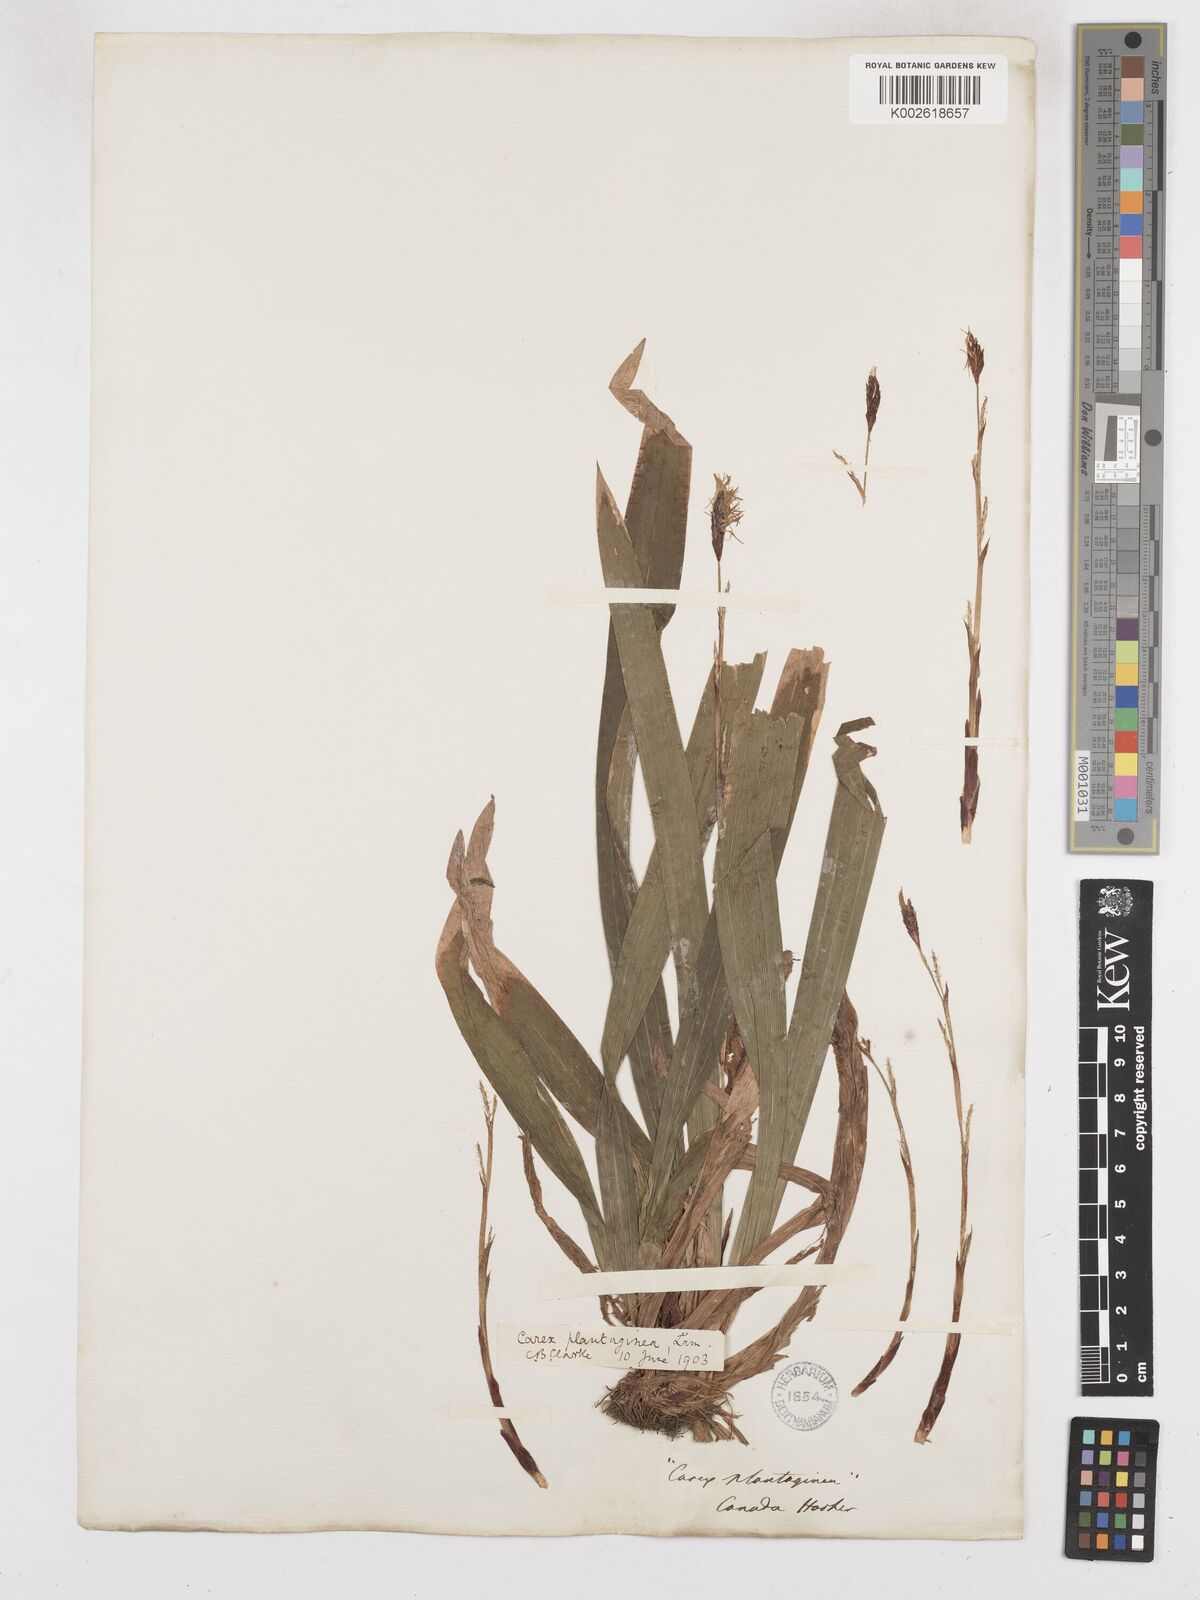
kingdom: Plantae
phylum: Tracheophyta
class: Liliopsida
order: Poales
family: Cyperaceae
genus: Carex
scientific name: Carex plantaginea
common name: Plantain-leaved sedge
